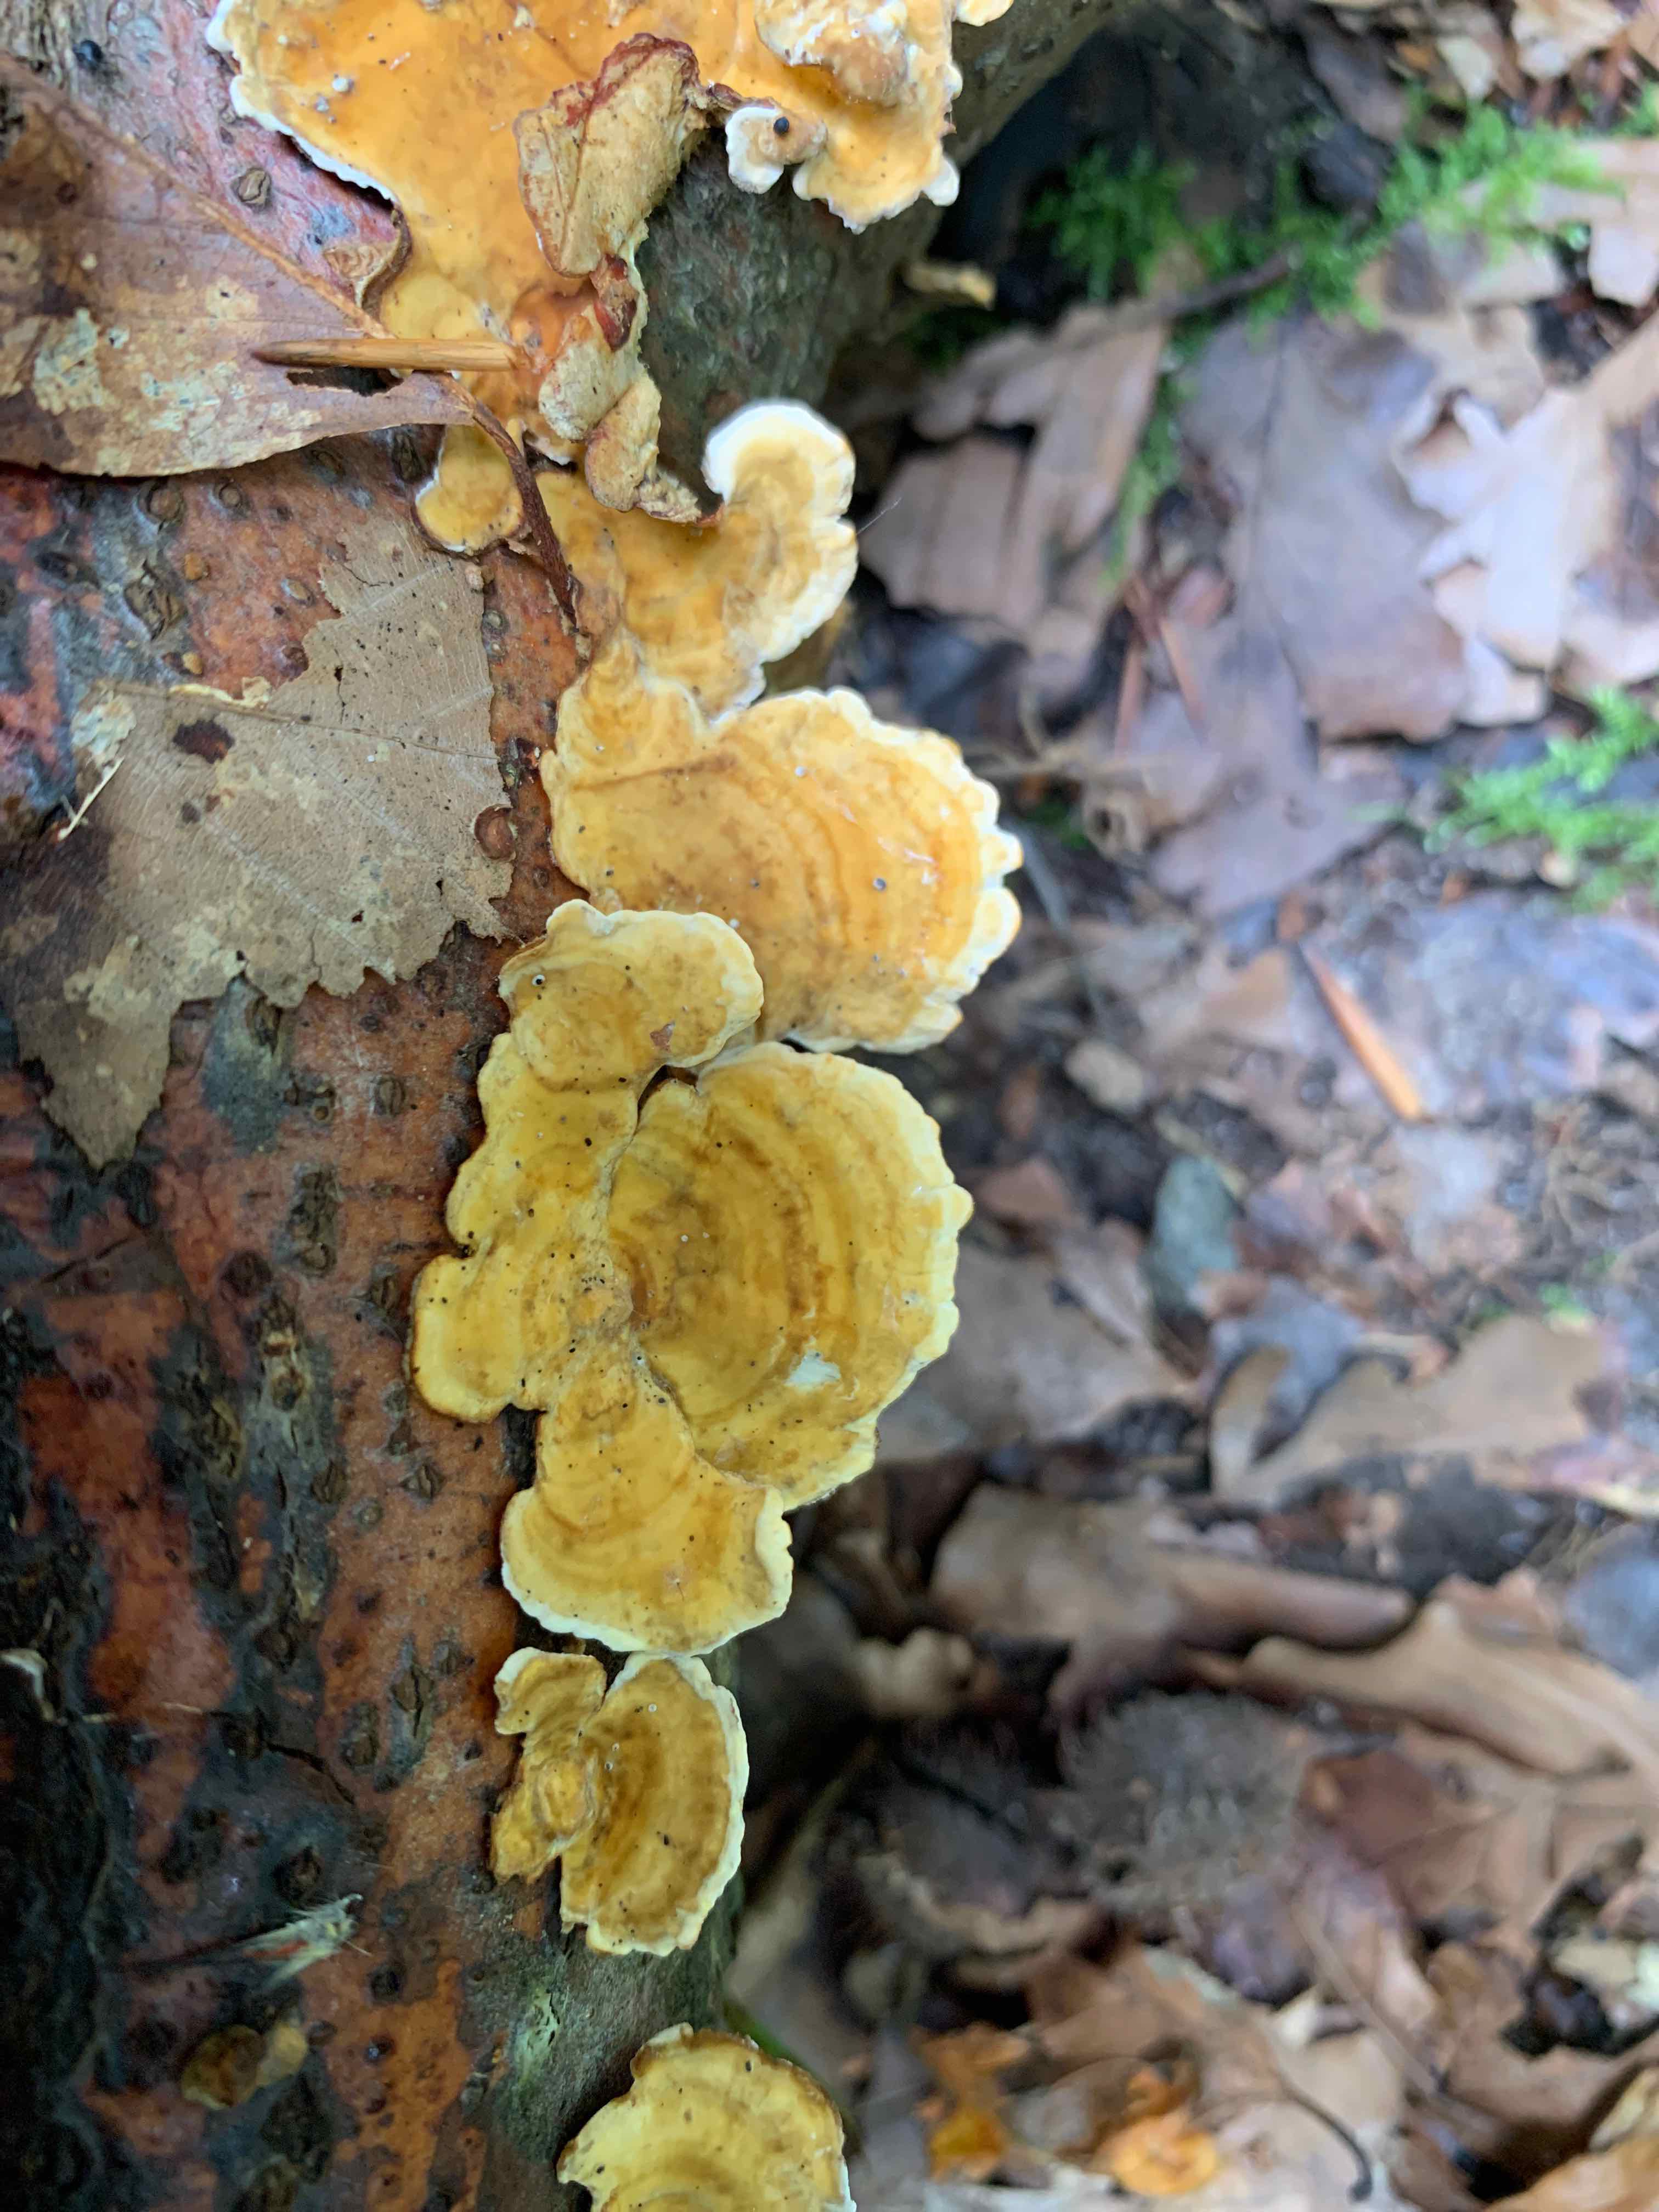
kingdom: Fungi
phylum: Basidiomycota
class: Agaricomycetes
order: Russulales
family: Stereaceae
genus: Stereum
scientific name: Stereum hirsutum
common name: håret lædersvamp
